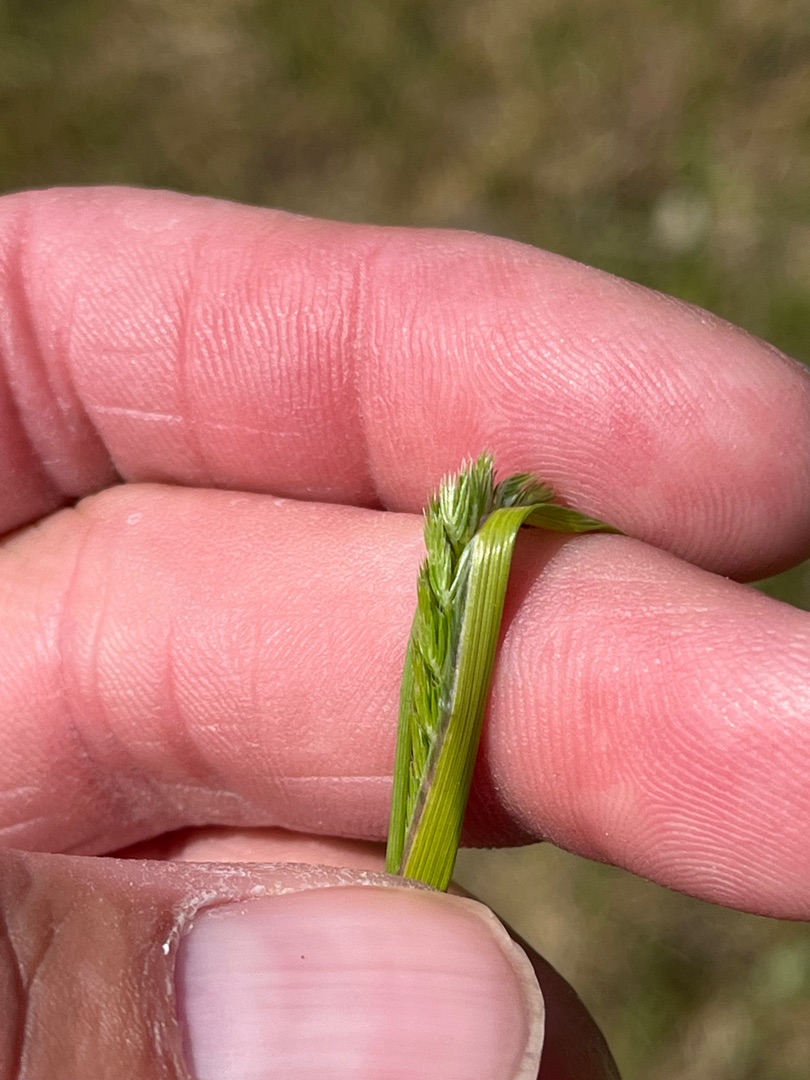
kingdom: Plantae
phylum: Tracheophyta
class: Liliopsida
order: Poales
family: Poaceae
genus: Cynosurus
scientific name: Cynosurus cristatus
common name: Kamgræs
